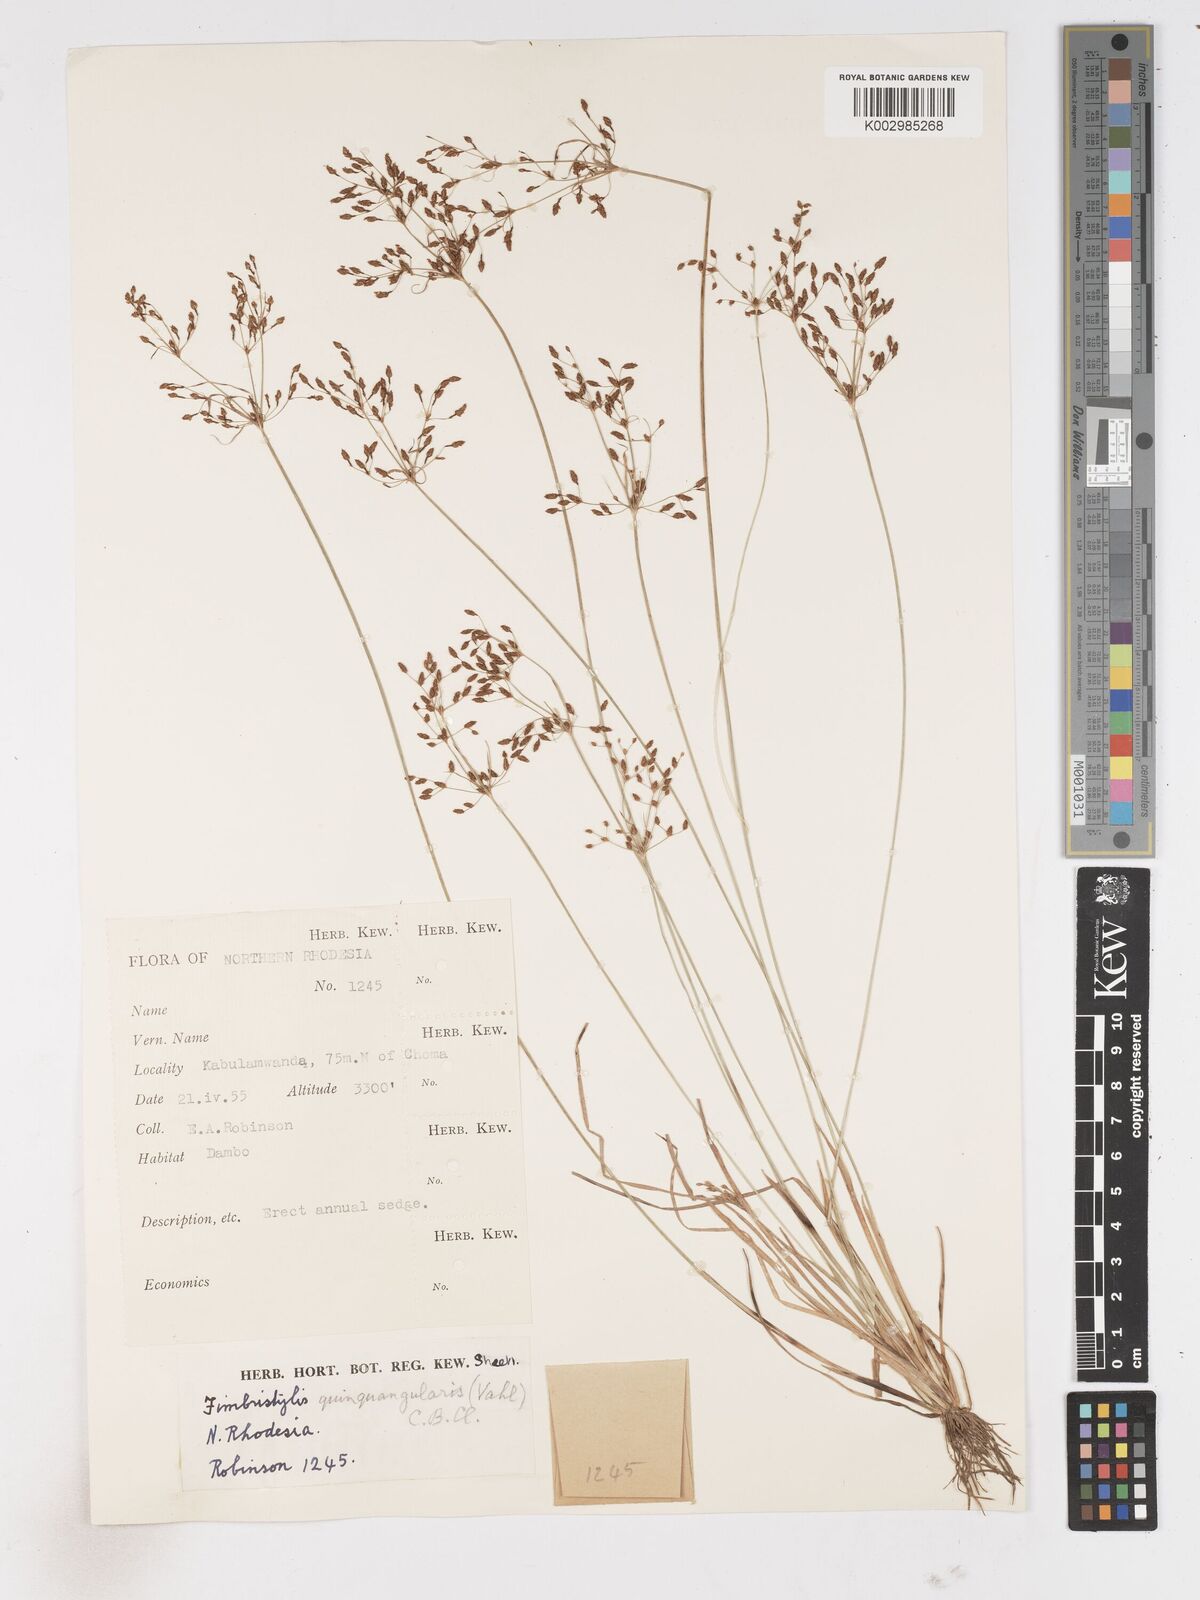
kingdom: Plantae
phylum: Tracheophyta
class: Liliopsida
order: Poales
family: Cyperaceae
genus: Fimbristylis
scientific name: Fimbristylis quinquangularis
